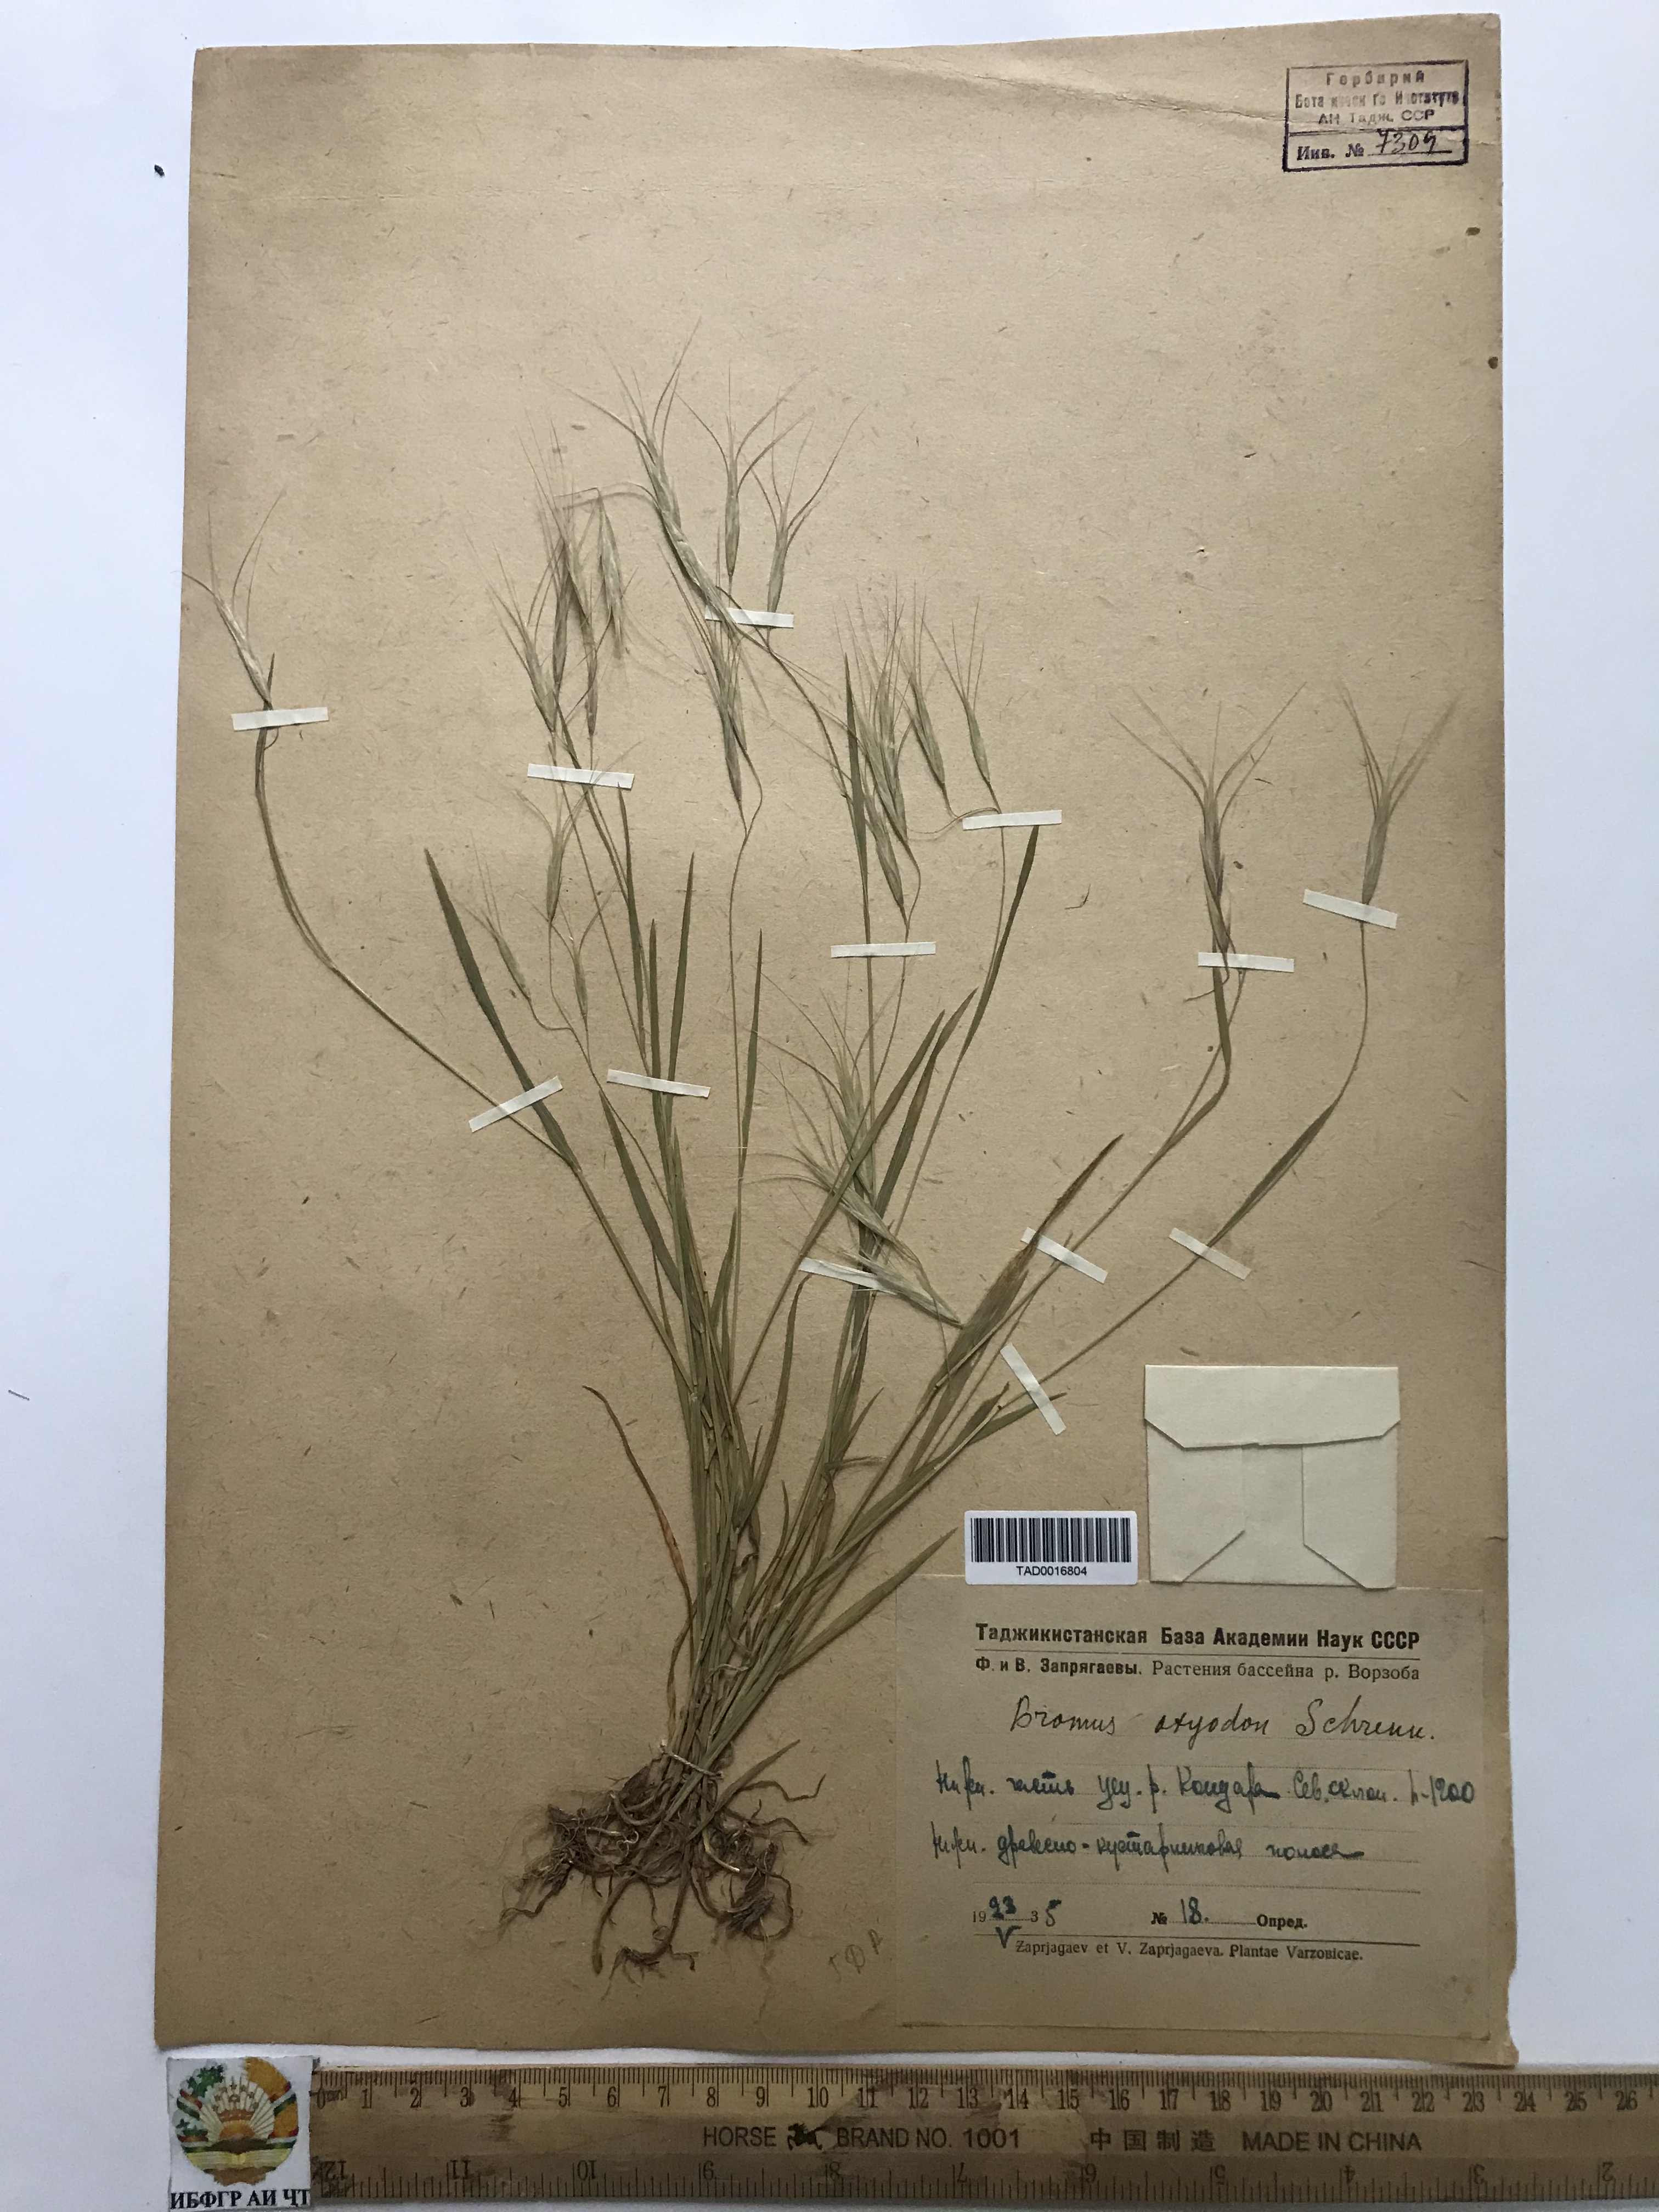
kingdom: Plantae
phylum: Tracheophyta
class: Liliopsida
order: Poales
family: Poaceae
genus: Bromus
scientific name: Bromus oxyodon
